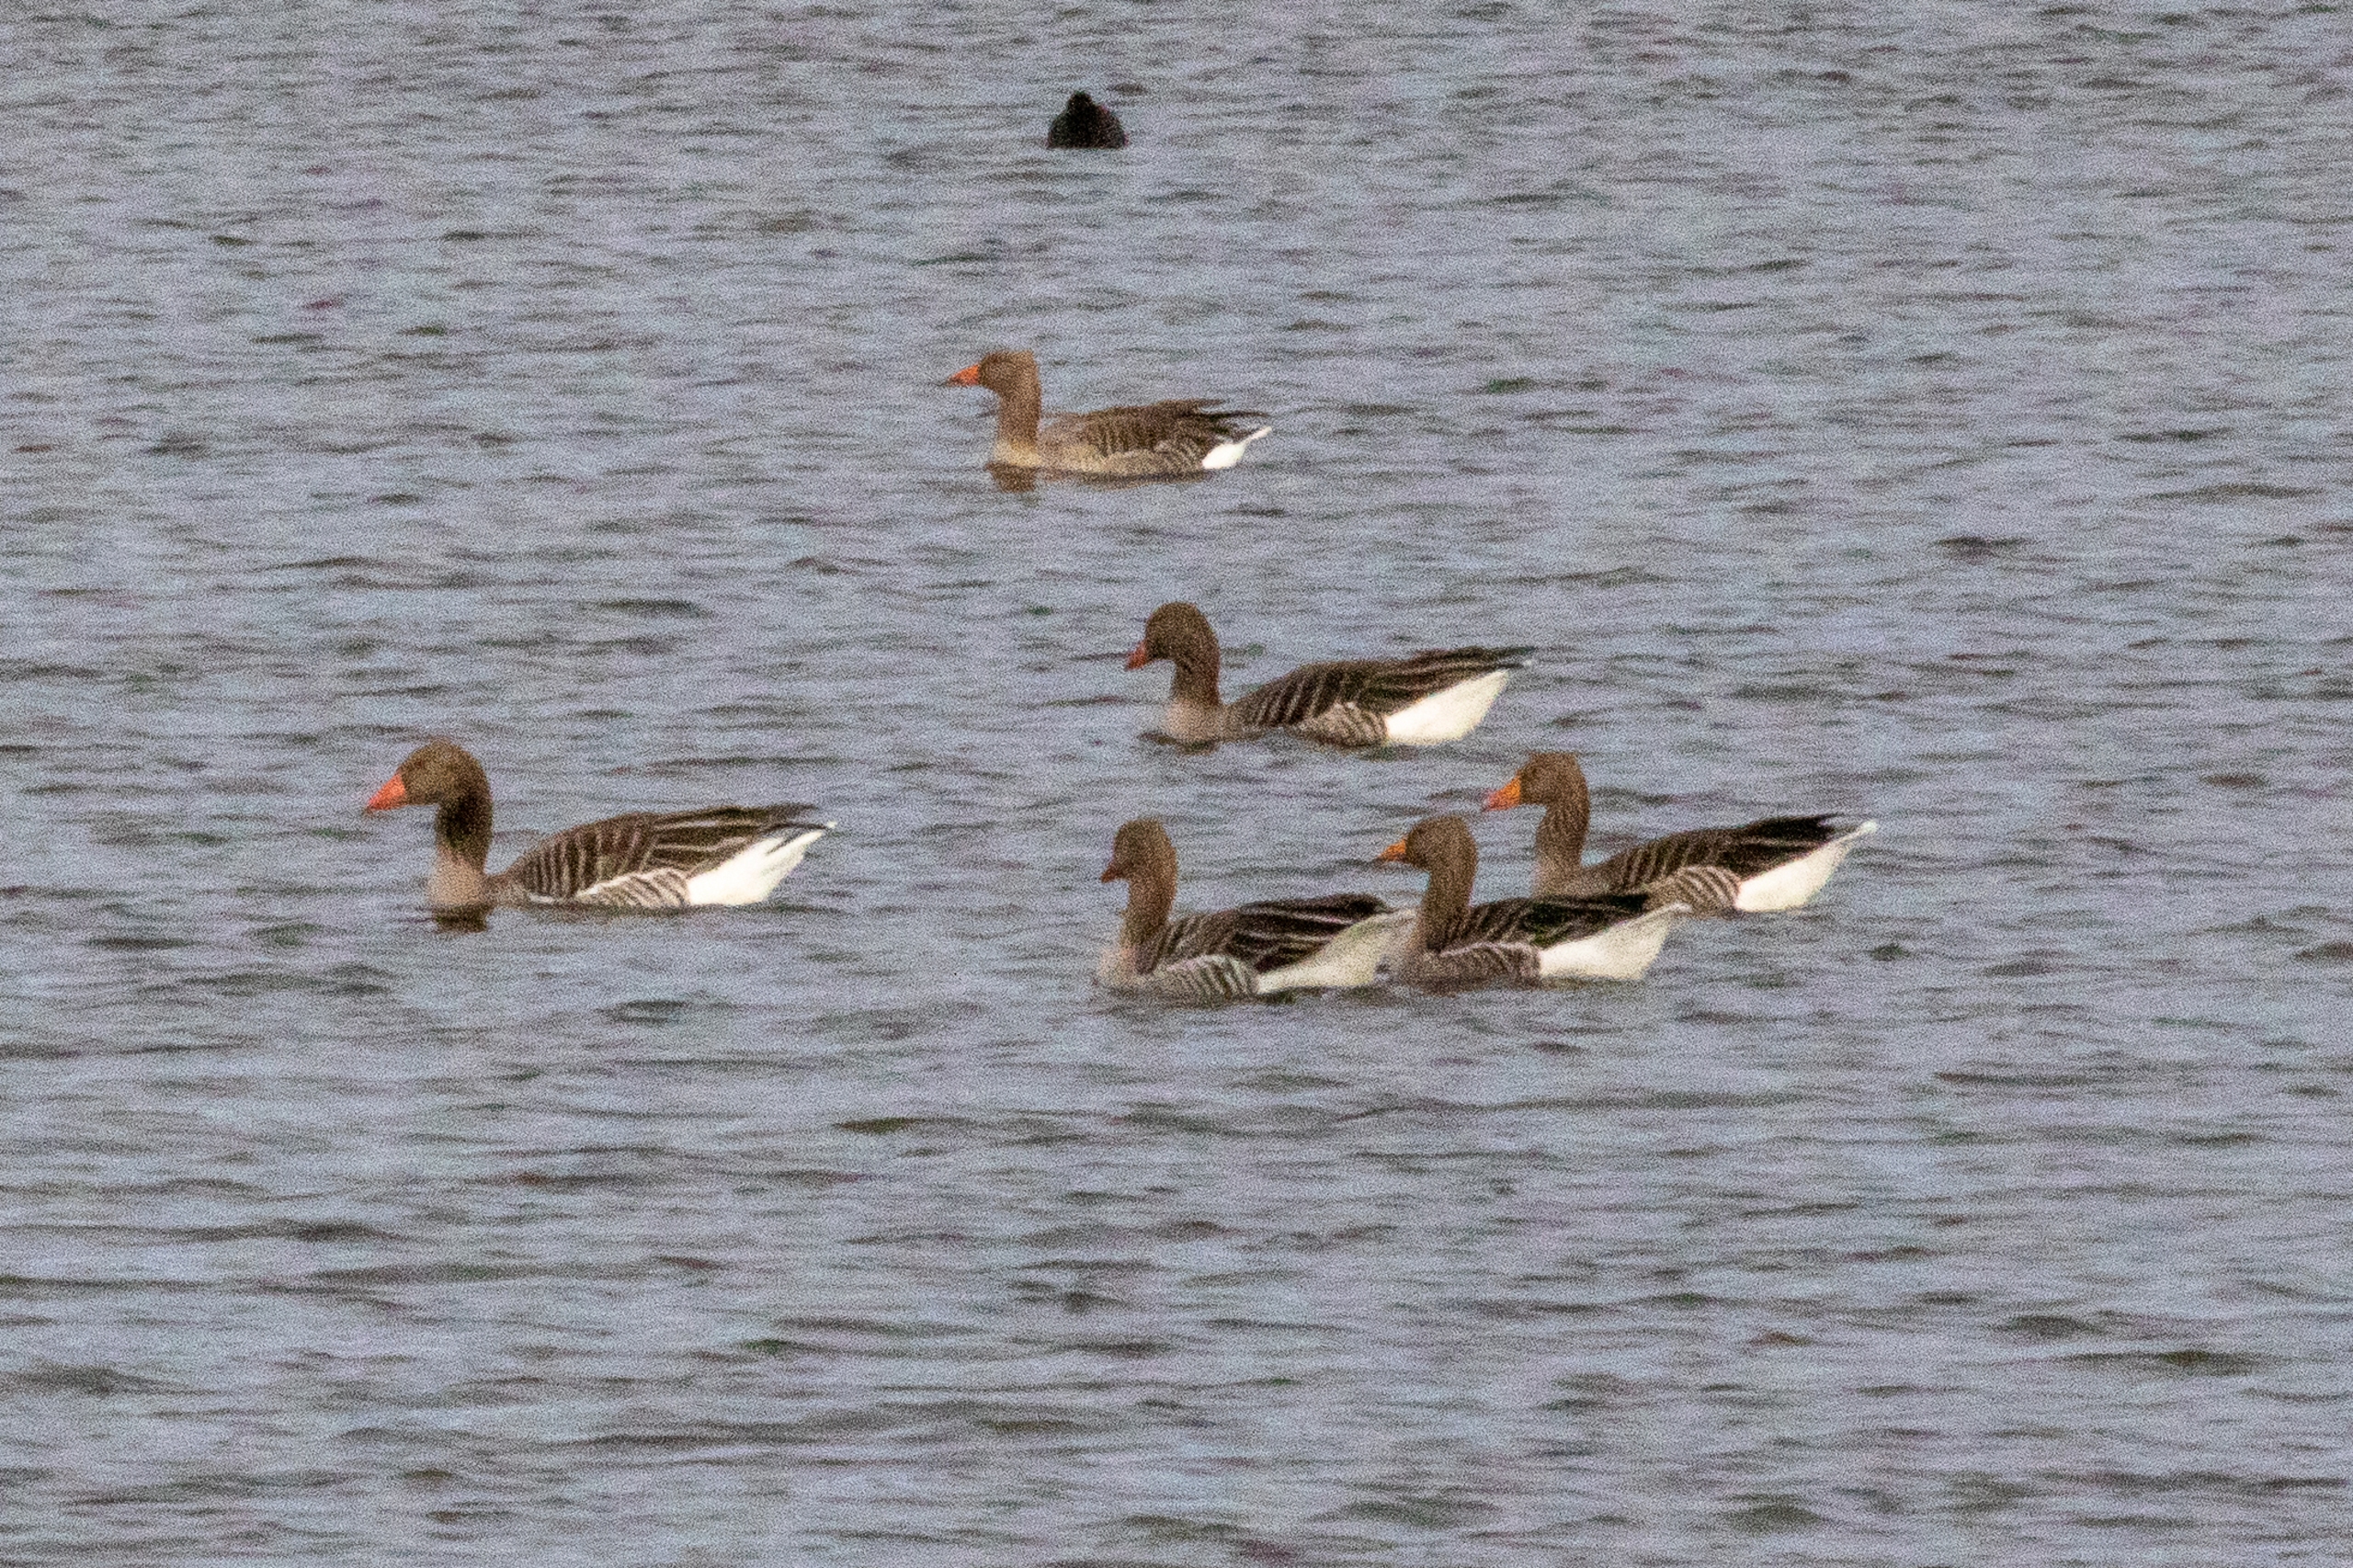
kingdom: Animalia
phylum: Chordata
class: Aves
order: Anseriformes
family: Anatidae
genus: Anser
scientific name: Anser anser
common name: Grågås
